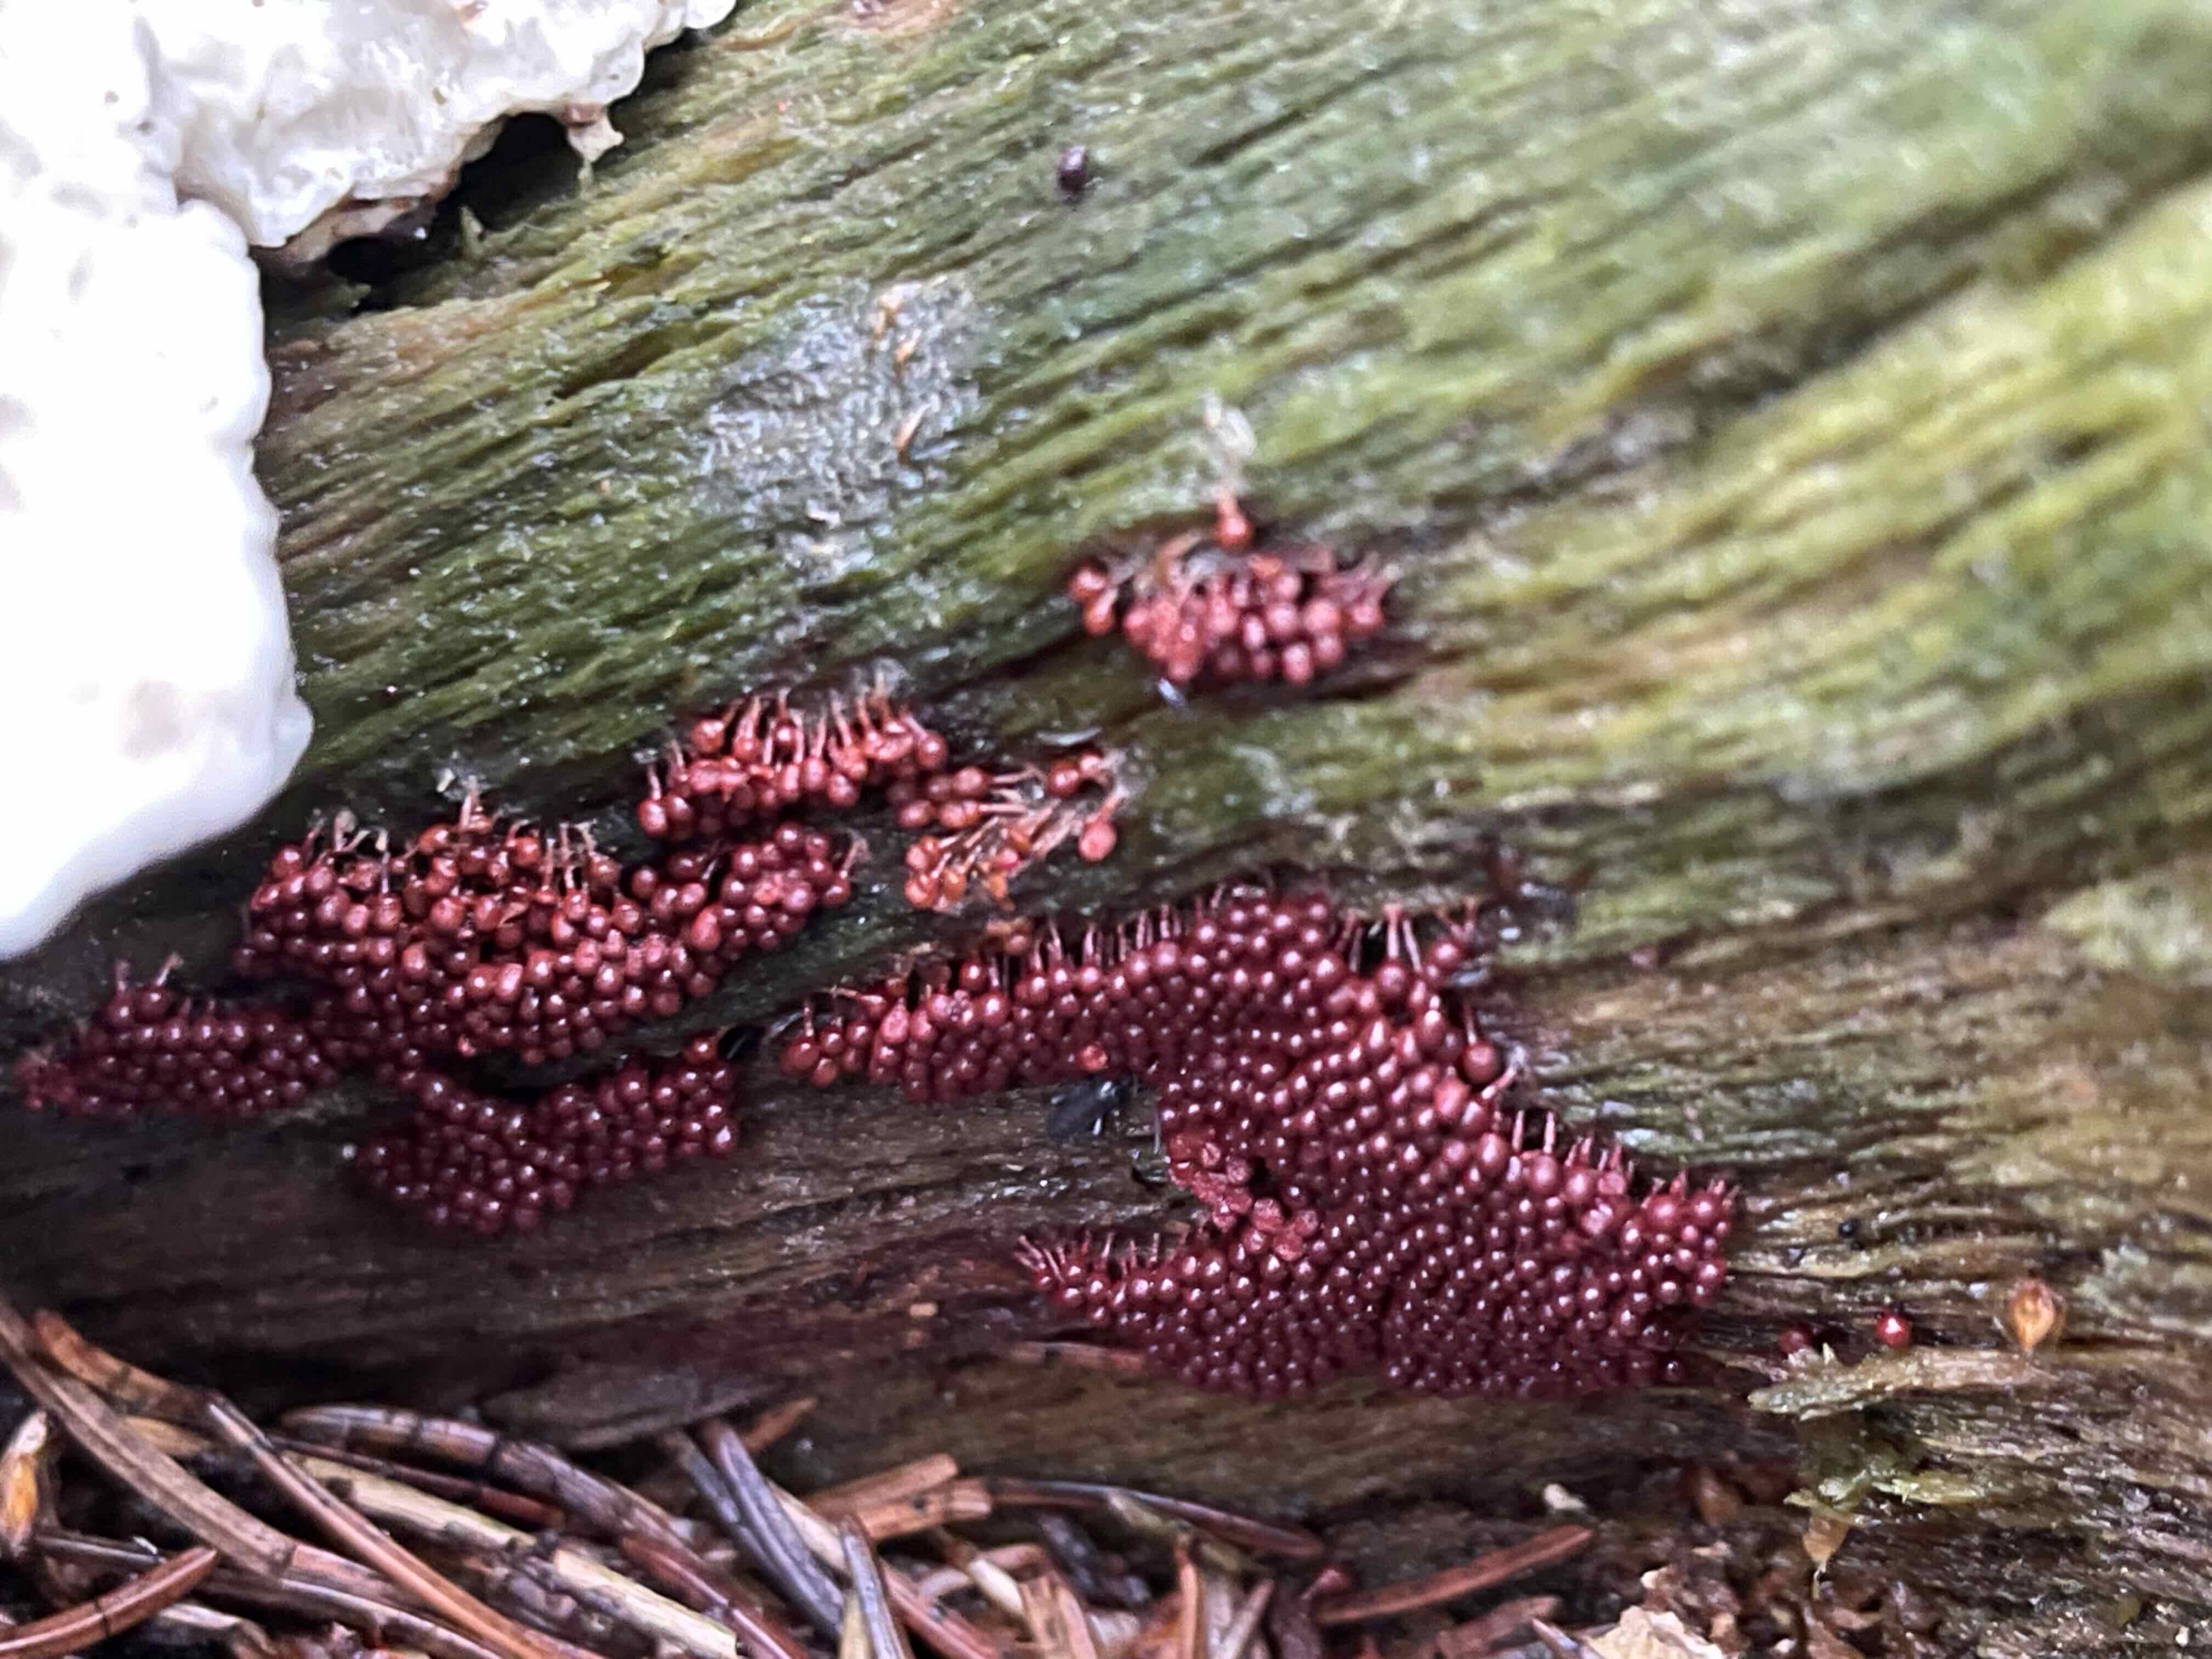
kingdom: Protozoa
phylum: Amoebozoa
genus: Arcyria
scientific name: Arcyria
